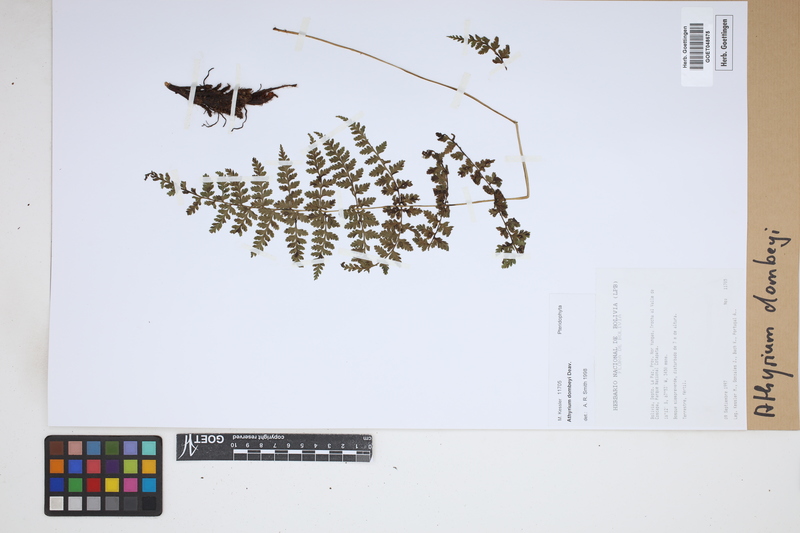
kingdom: Plantae
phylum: Tracheophyta
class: Polypodiopsida
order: Polypodiales
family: Athyriaceae
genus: Athyrium
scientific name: Athyrium dombeyi
